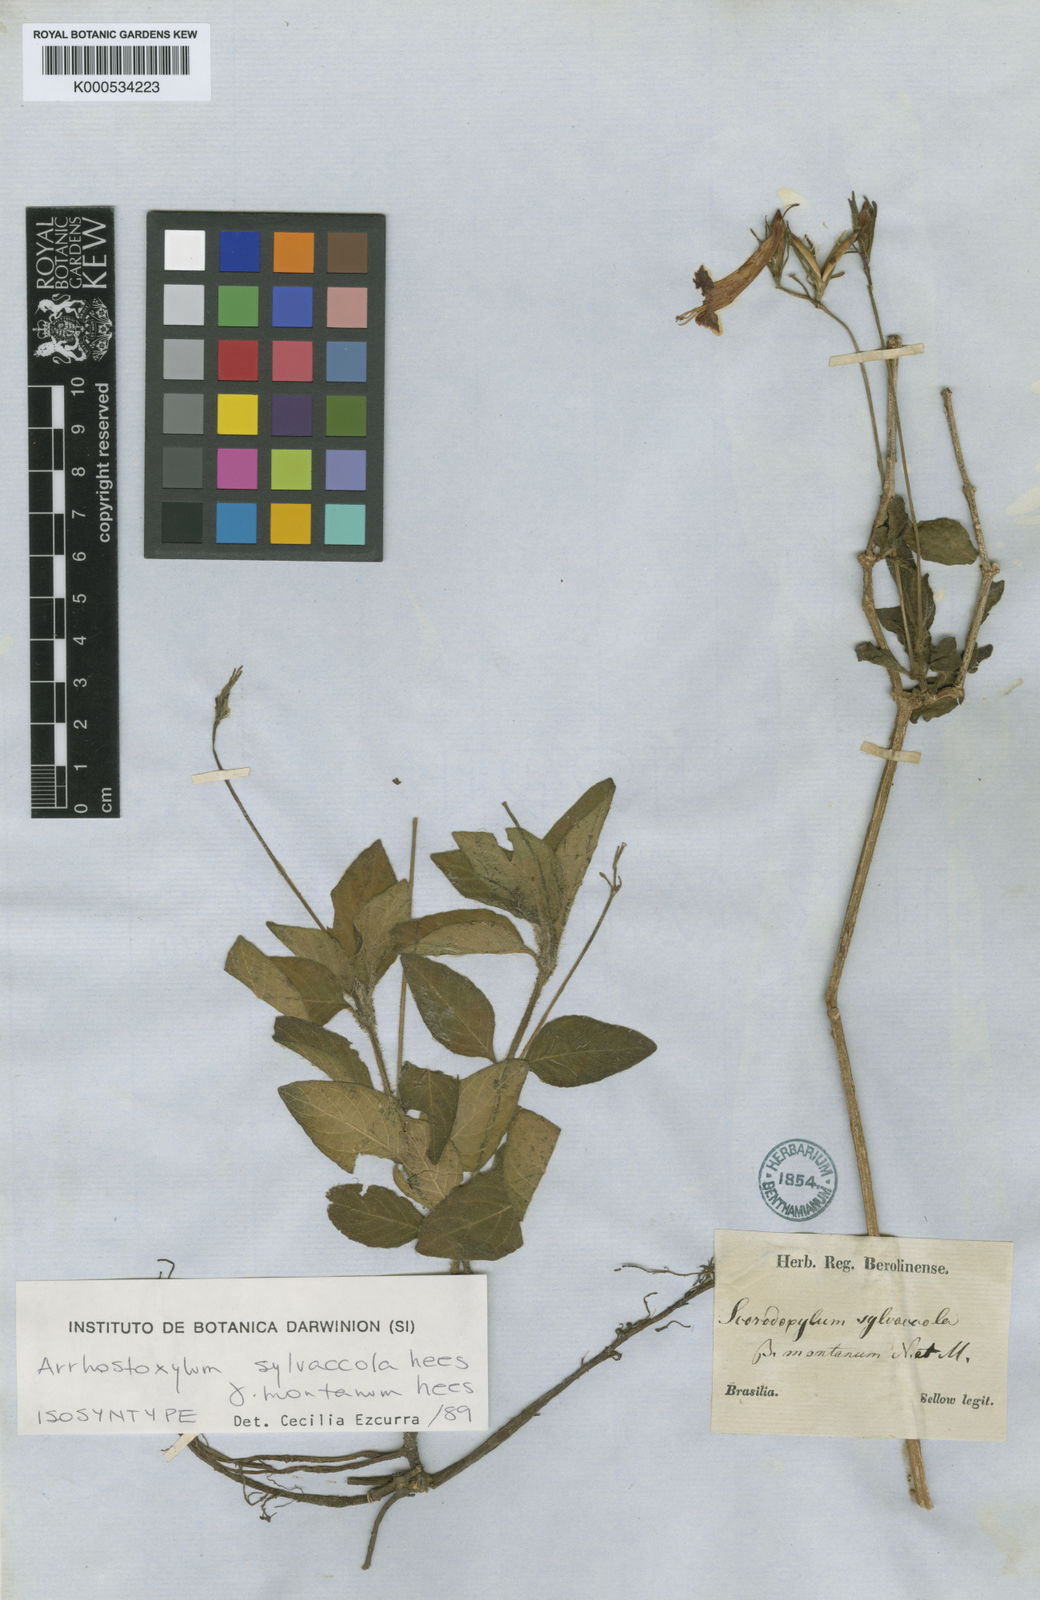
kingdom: Plantae
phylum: Tracheophyta
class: Magnoliopsida
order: Lamiales
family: Acanthaceae
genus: Ruellia
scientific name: Ruellia silvaccola
